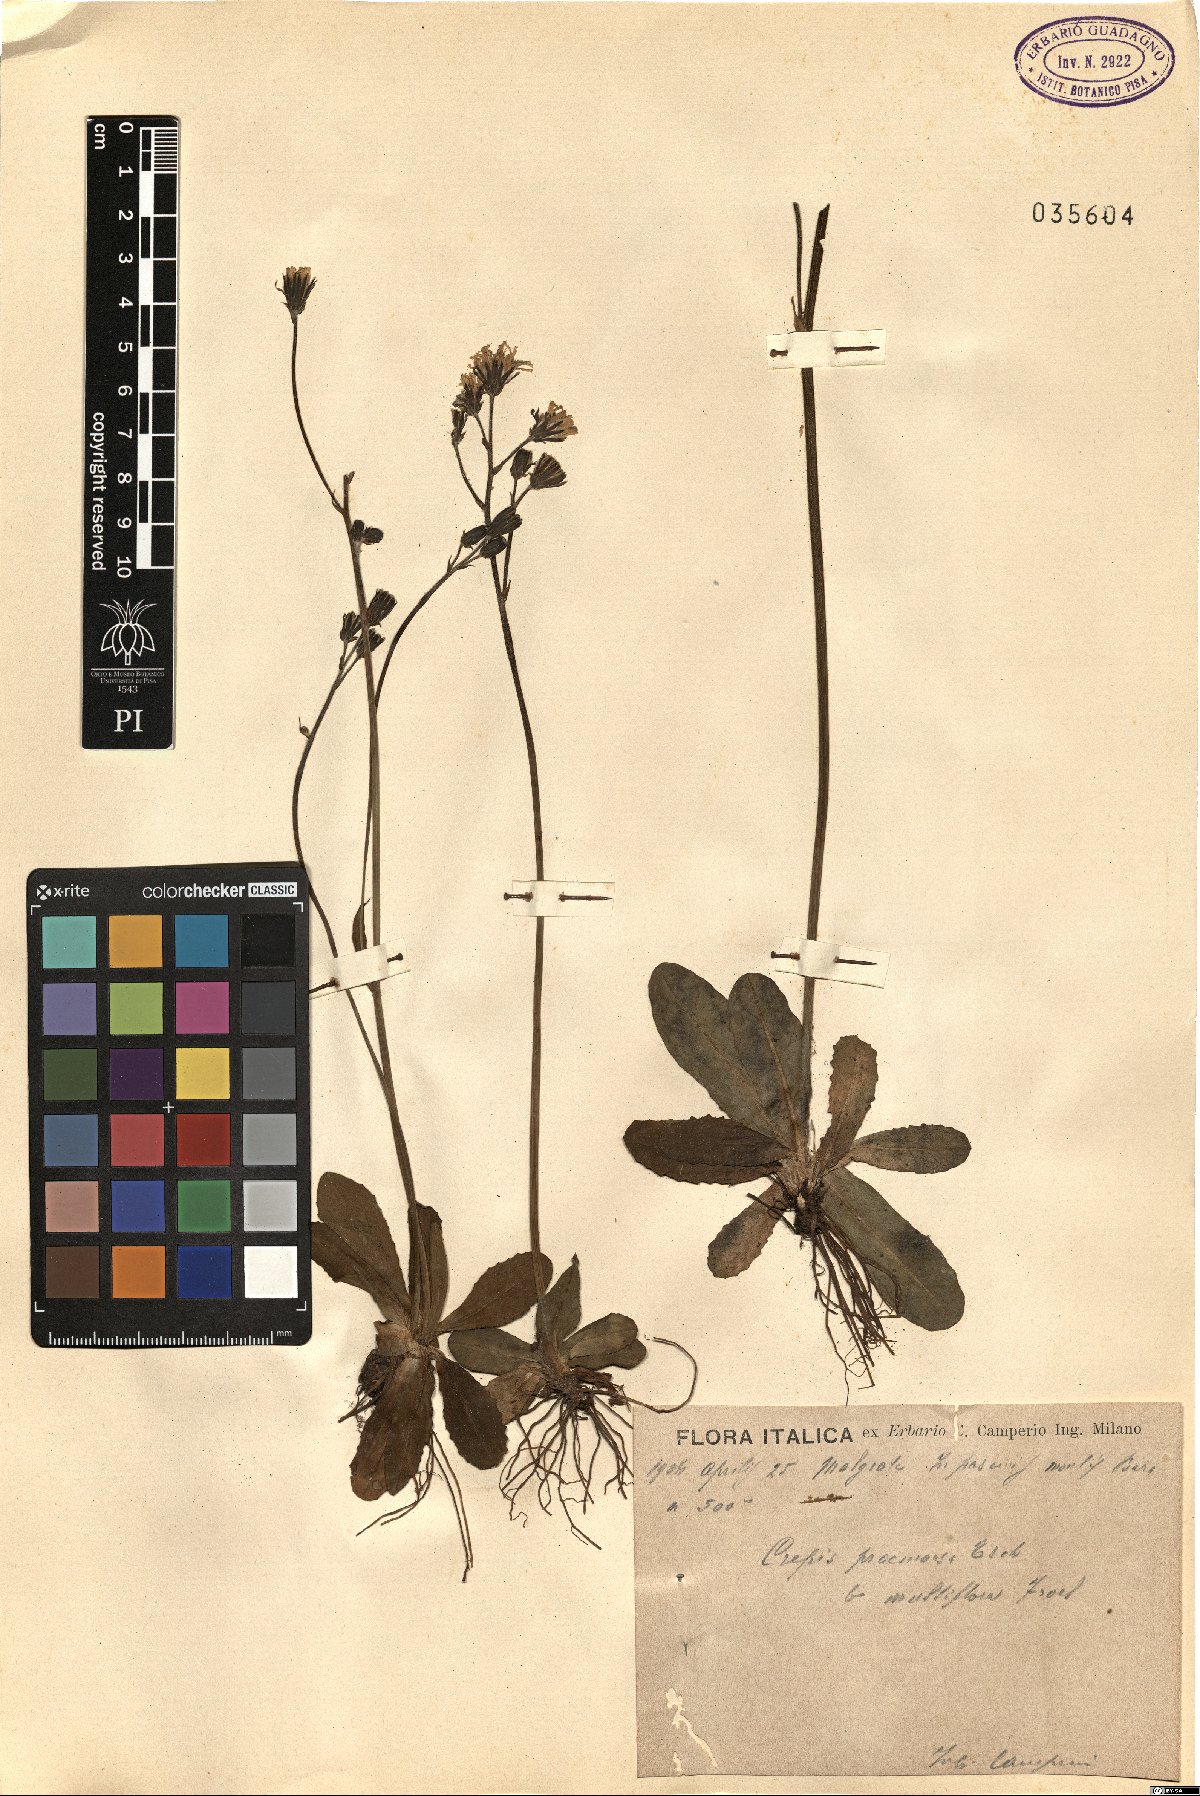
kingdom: Plantae
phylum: Tracheophyta
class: Magnoliopsida
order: Asterales
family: Asteraceae
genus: Crepis
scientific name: Crepis praemorsa
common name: Leafless hawk's-beard
